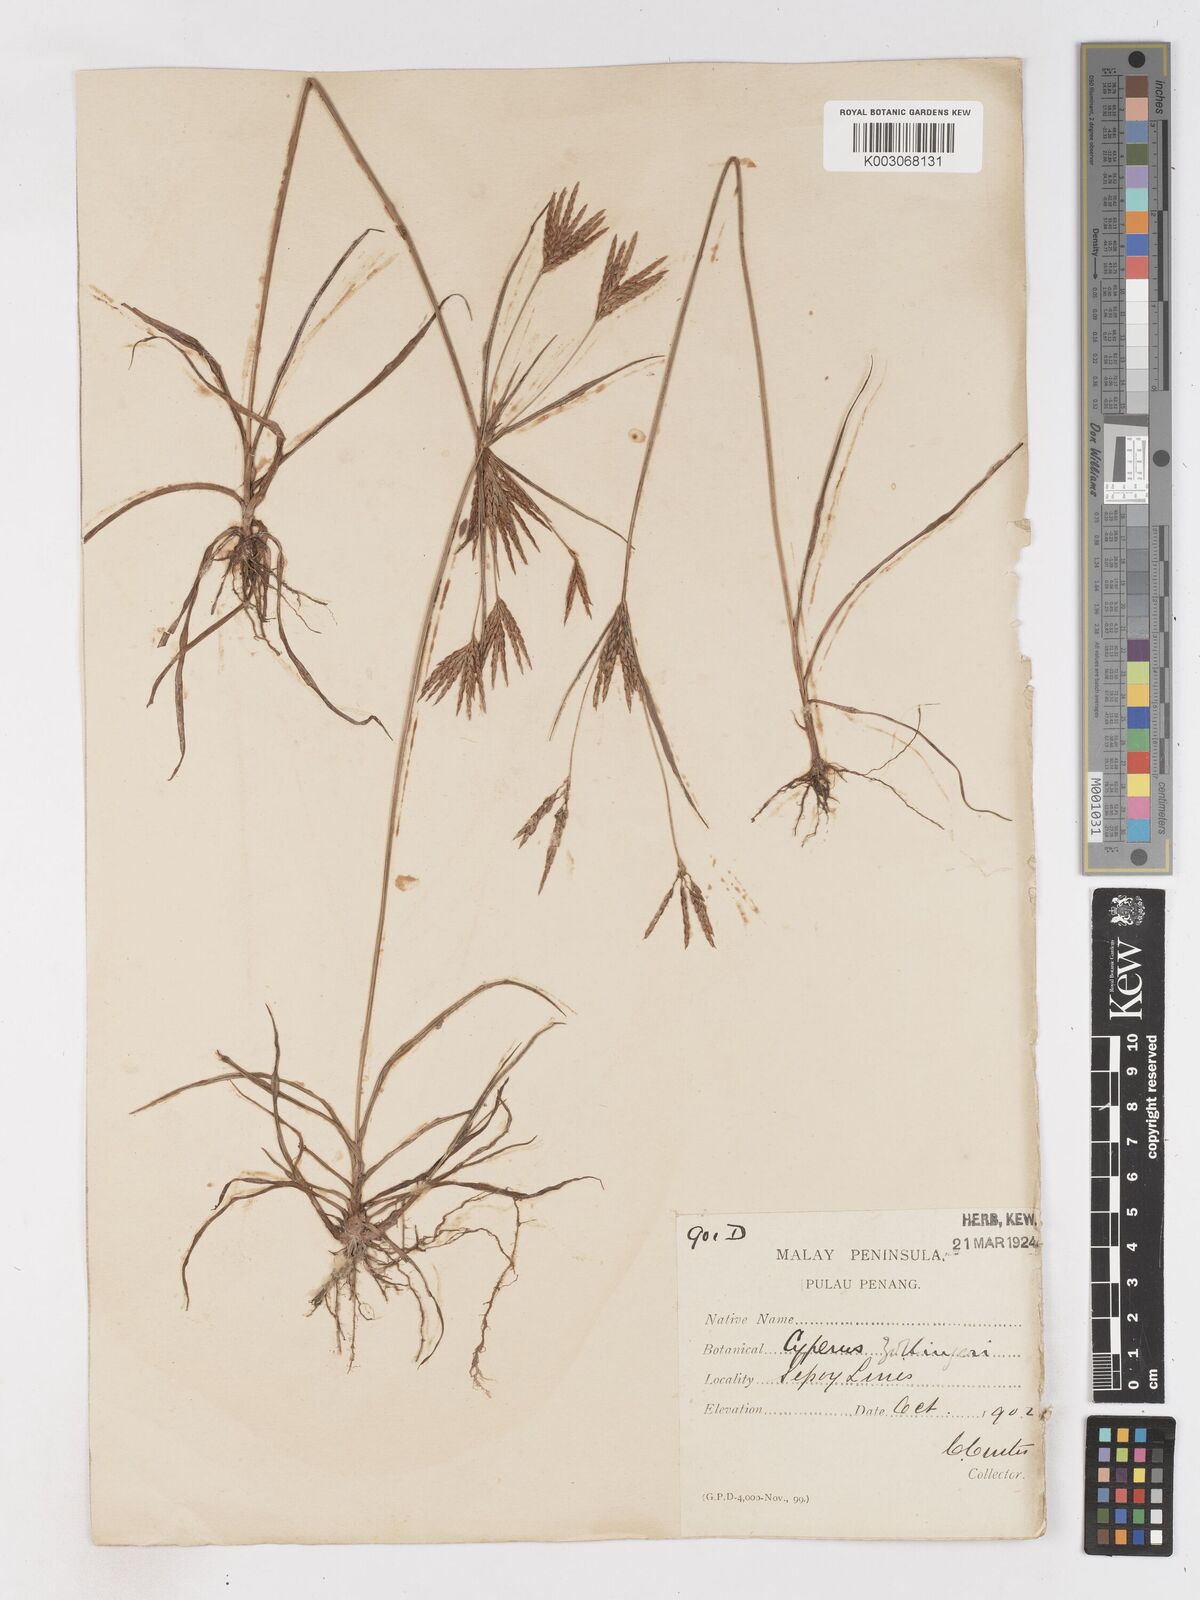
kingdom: Plantae
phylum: Tracheophyta
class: Liliopsida
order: Poales
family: Cyperaceae
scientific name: Cyperaceae
